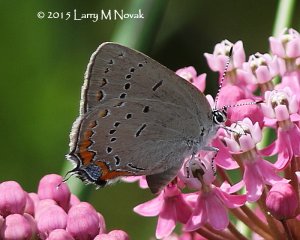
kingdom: Animalia
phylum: Arthropoda
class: Insecta
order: Lepidoptera
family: Lycaenidae
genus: Strymon
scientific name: Strymon acadica
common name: Acadian Hairstreak
